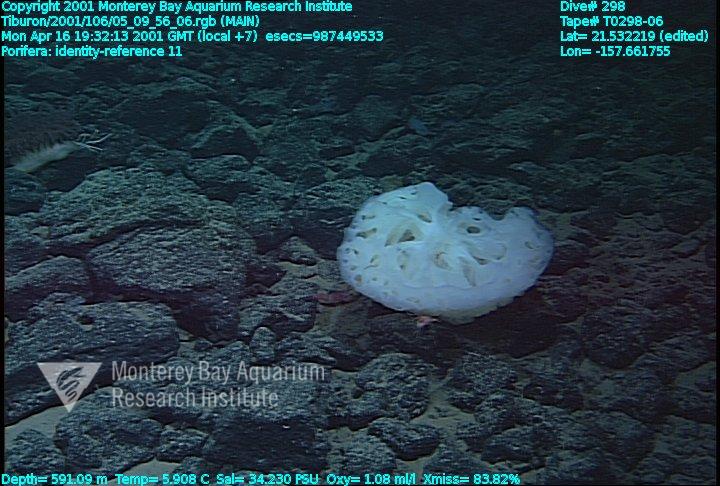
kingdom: Animalia
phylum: Porifera
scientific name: Porifera
